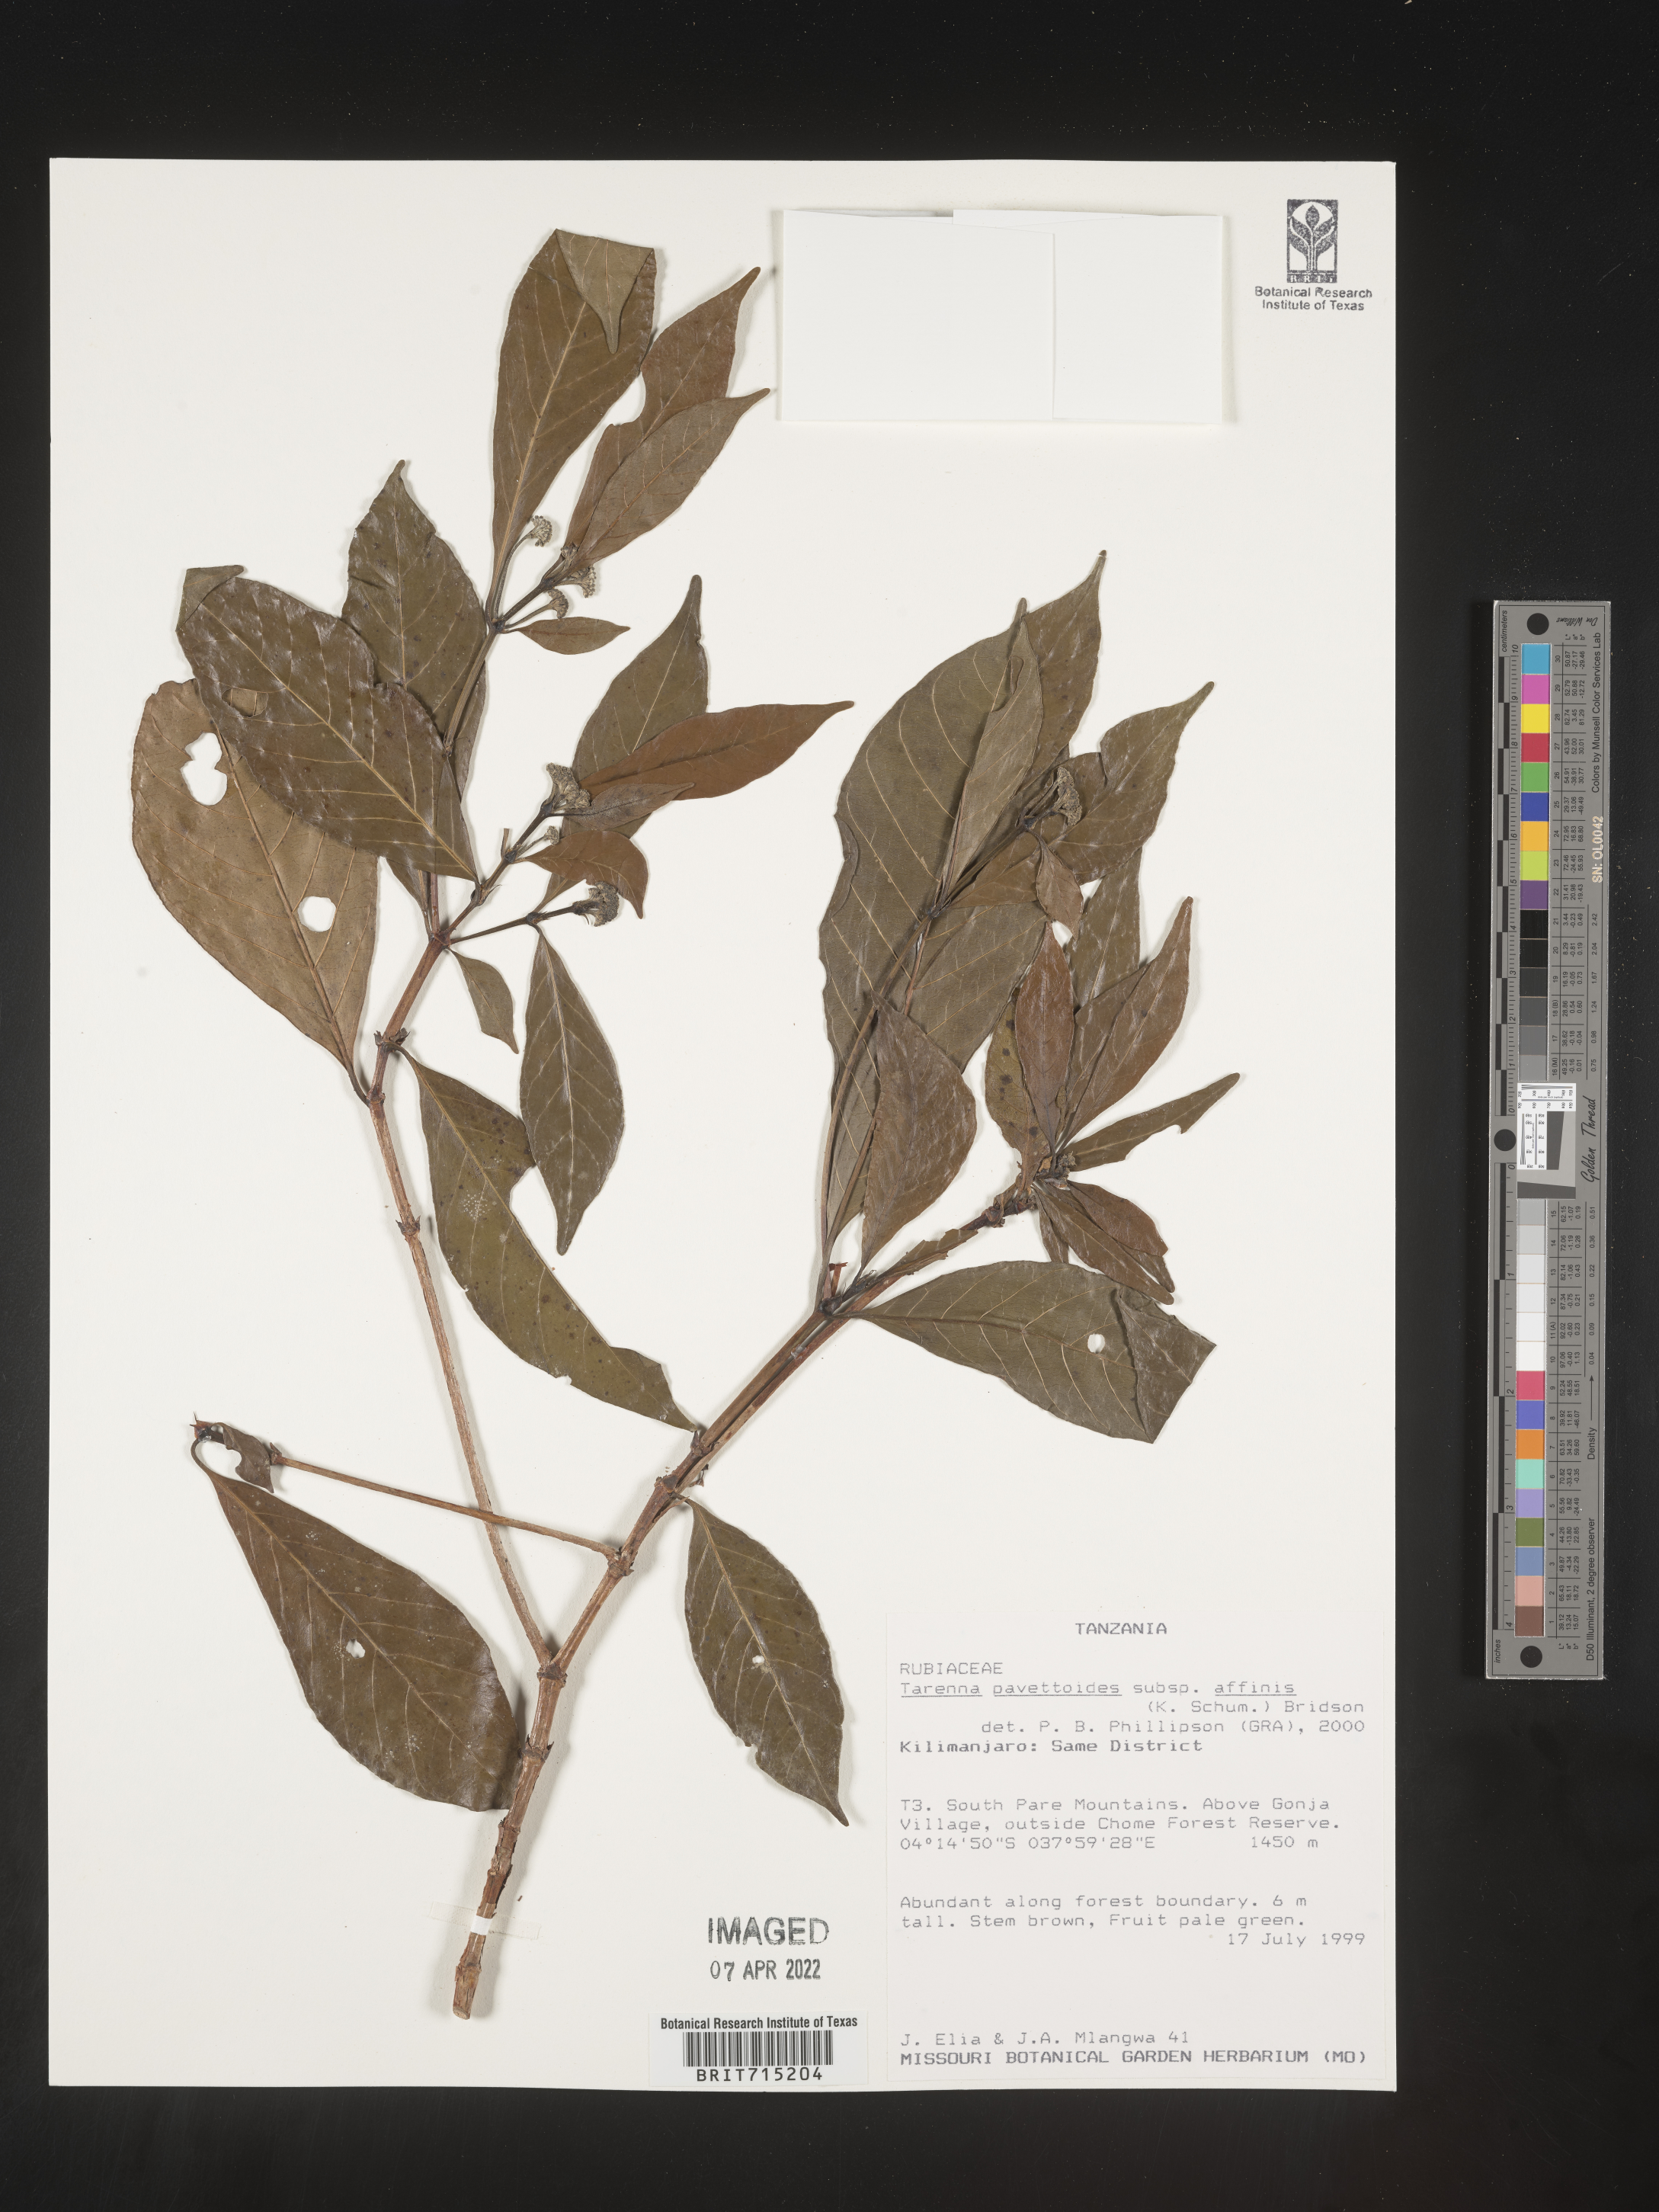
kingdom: Plantae
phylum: Tracheophyta
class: Magnoliopsida
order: Gentianales
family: Rubiaceae
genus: Tarenna
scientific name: Tarenna
